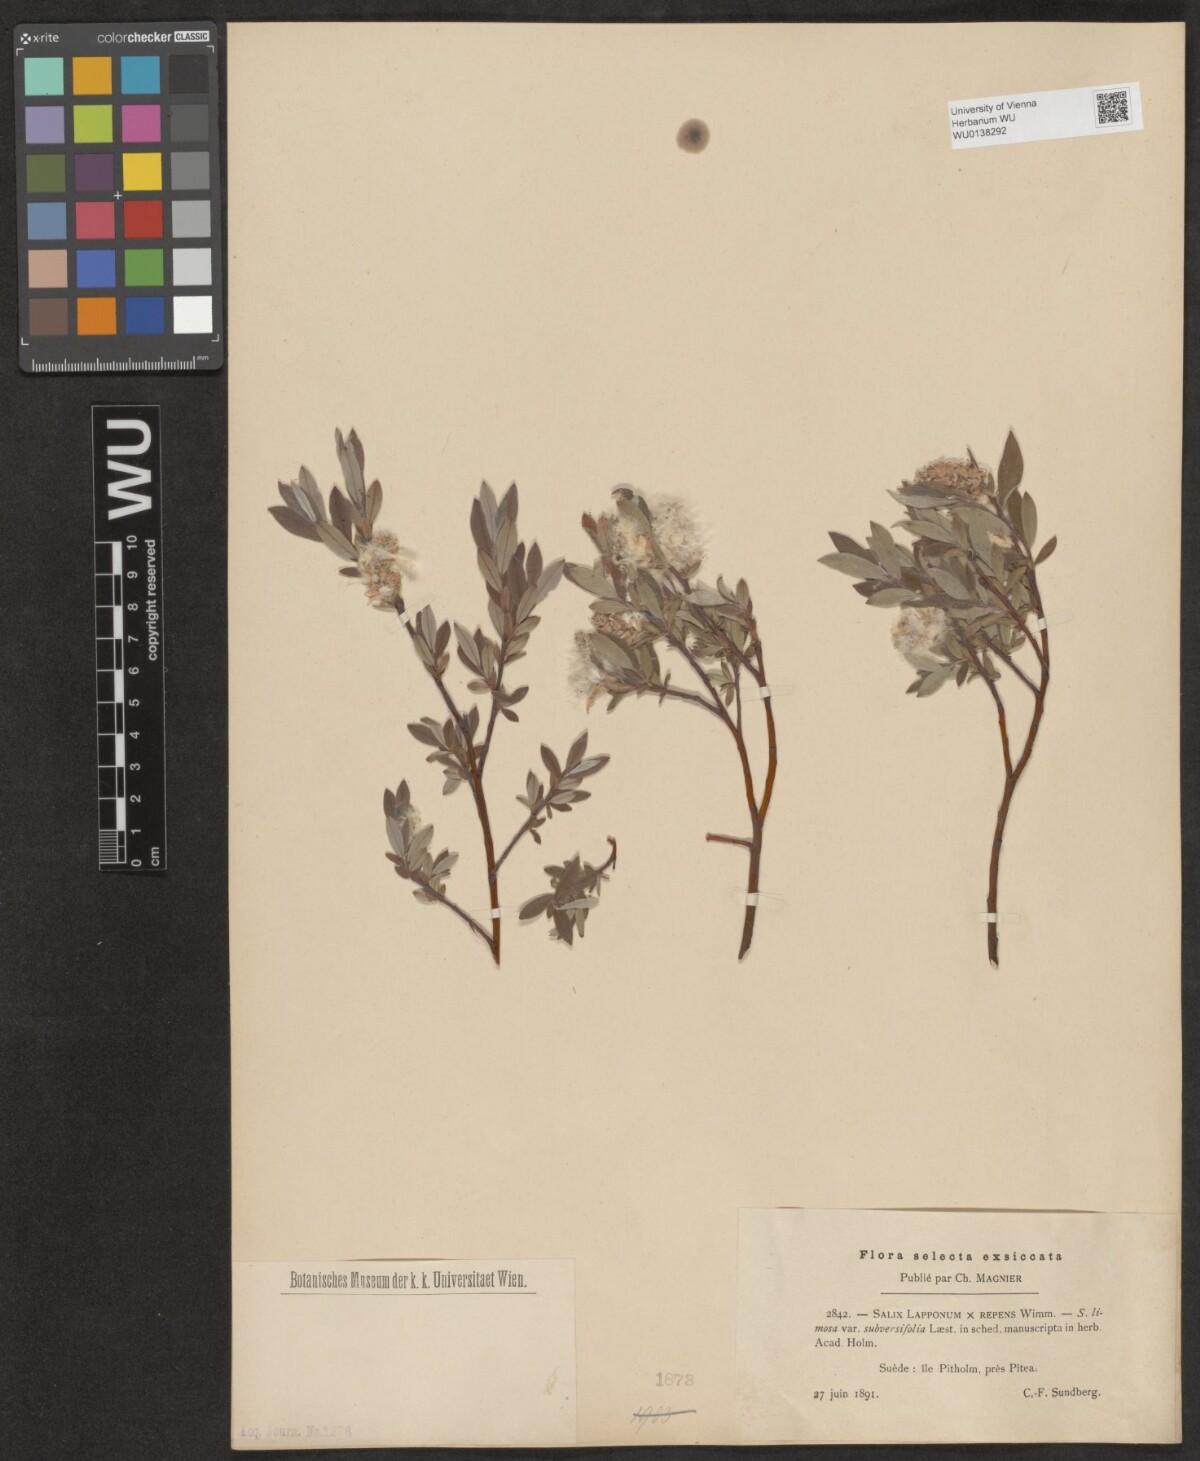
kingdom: Plantae
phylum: Tracheophyta
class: Magnoliopsida
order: Malpighiales
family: Salicaceae
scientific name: Salicaceae
